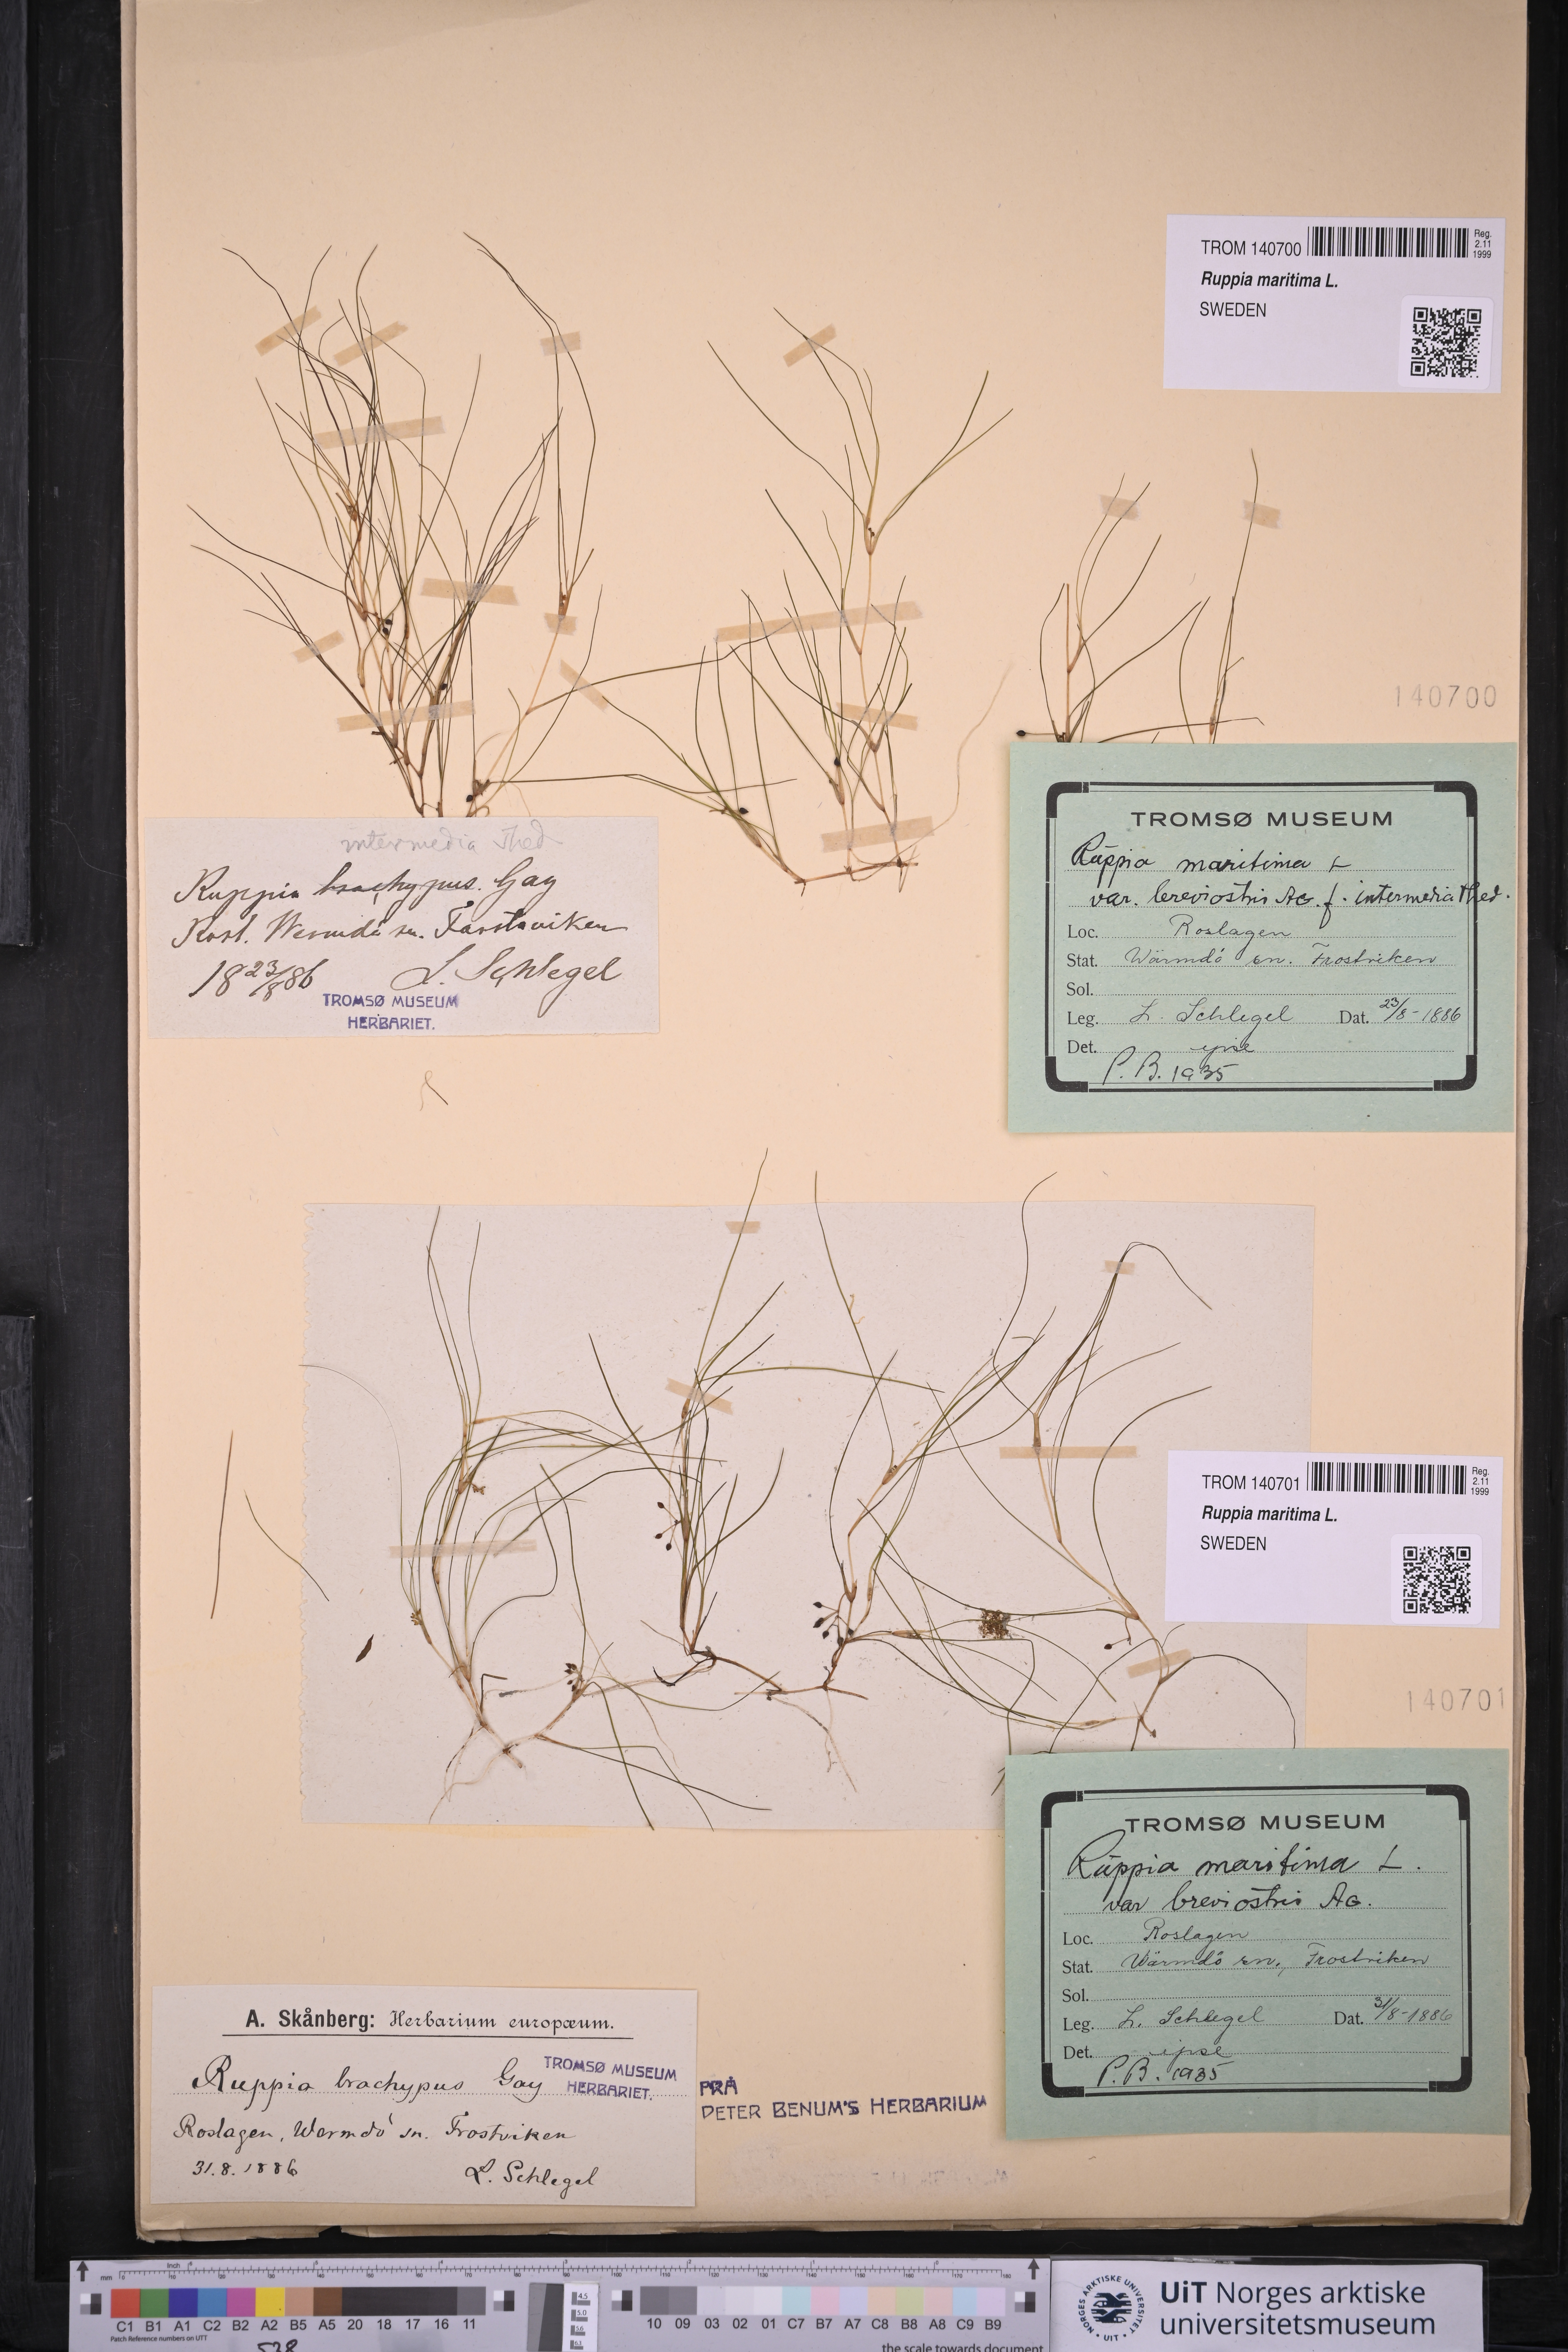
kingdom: Plantae
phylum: Tracheophyta
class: Liliopsida
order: Alismatales
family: Ruppiaceae
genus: Ruppia
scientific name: Ruppia maritima
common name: Beaked tasselweed
